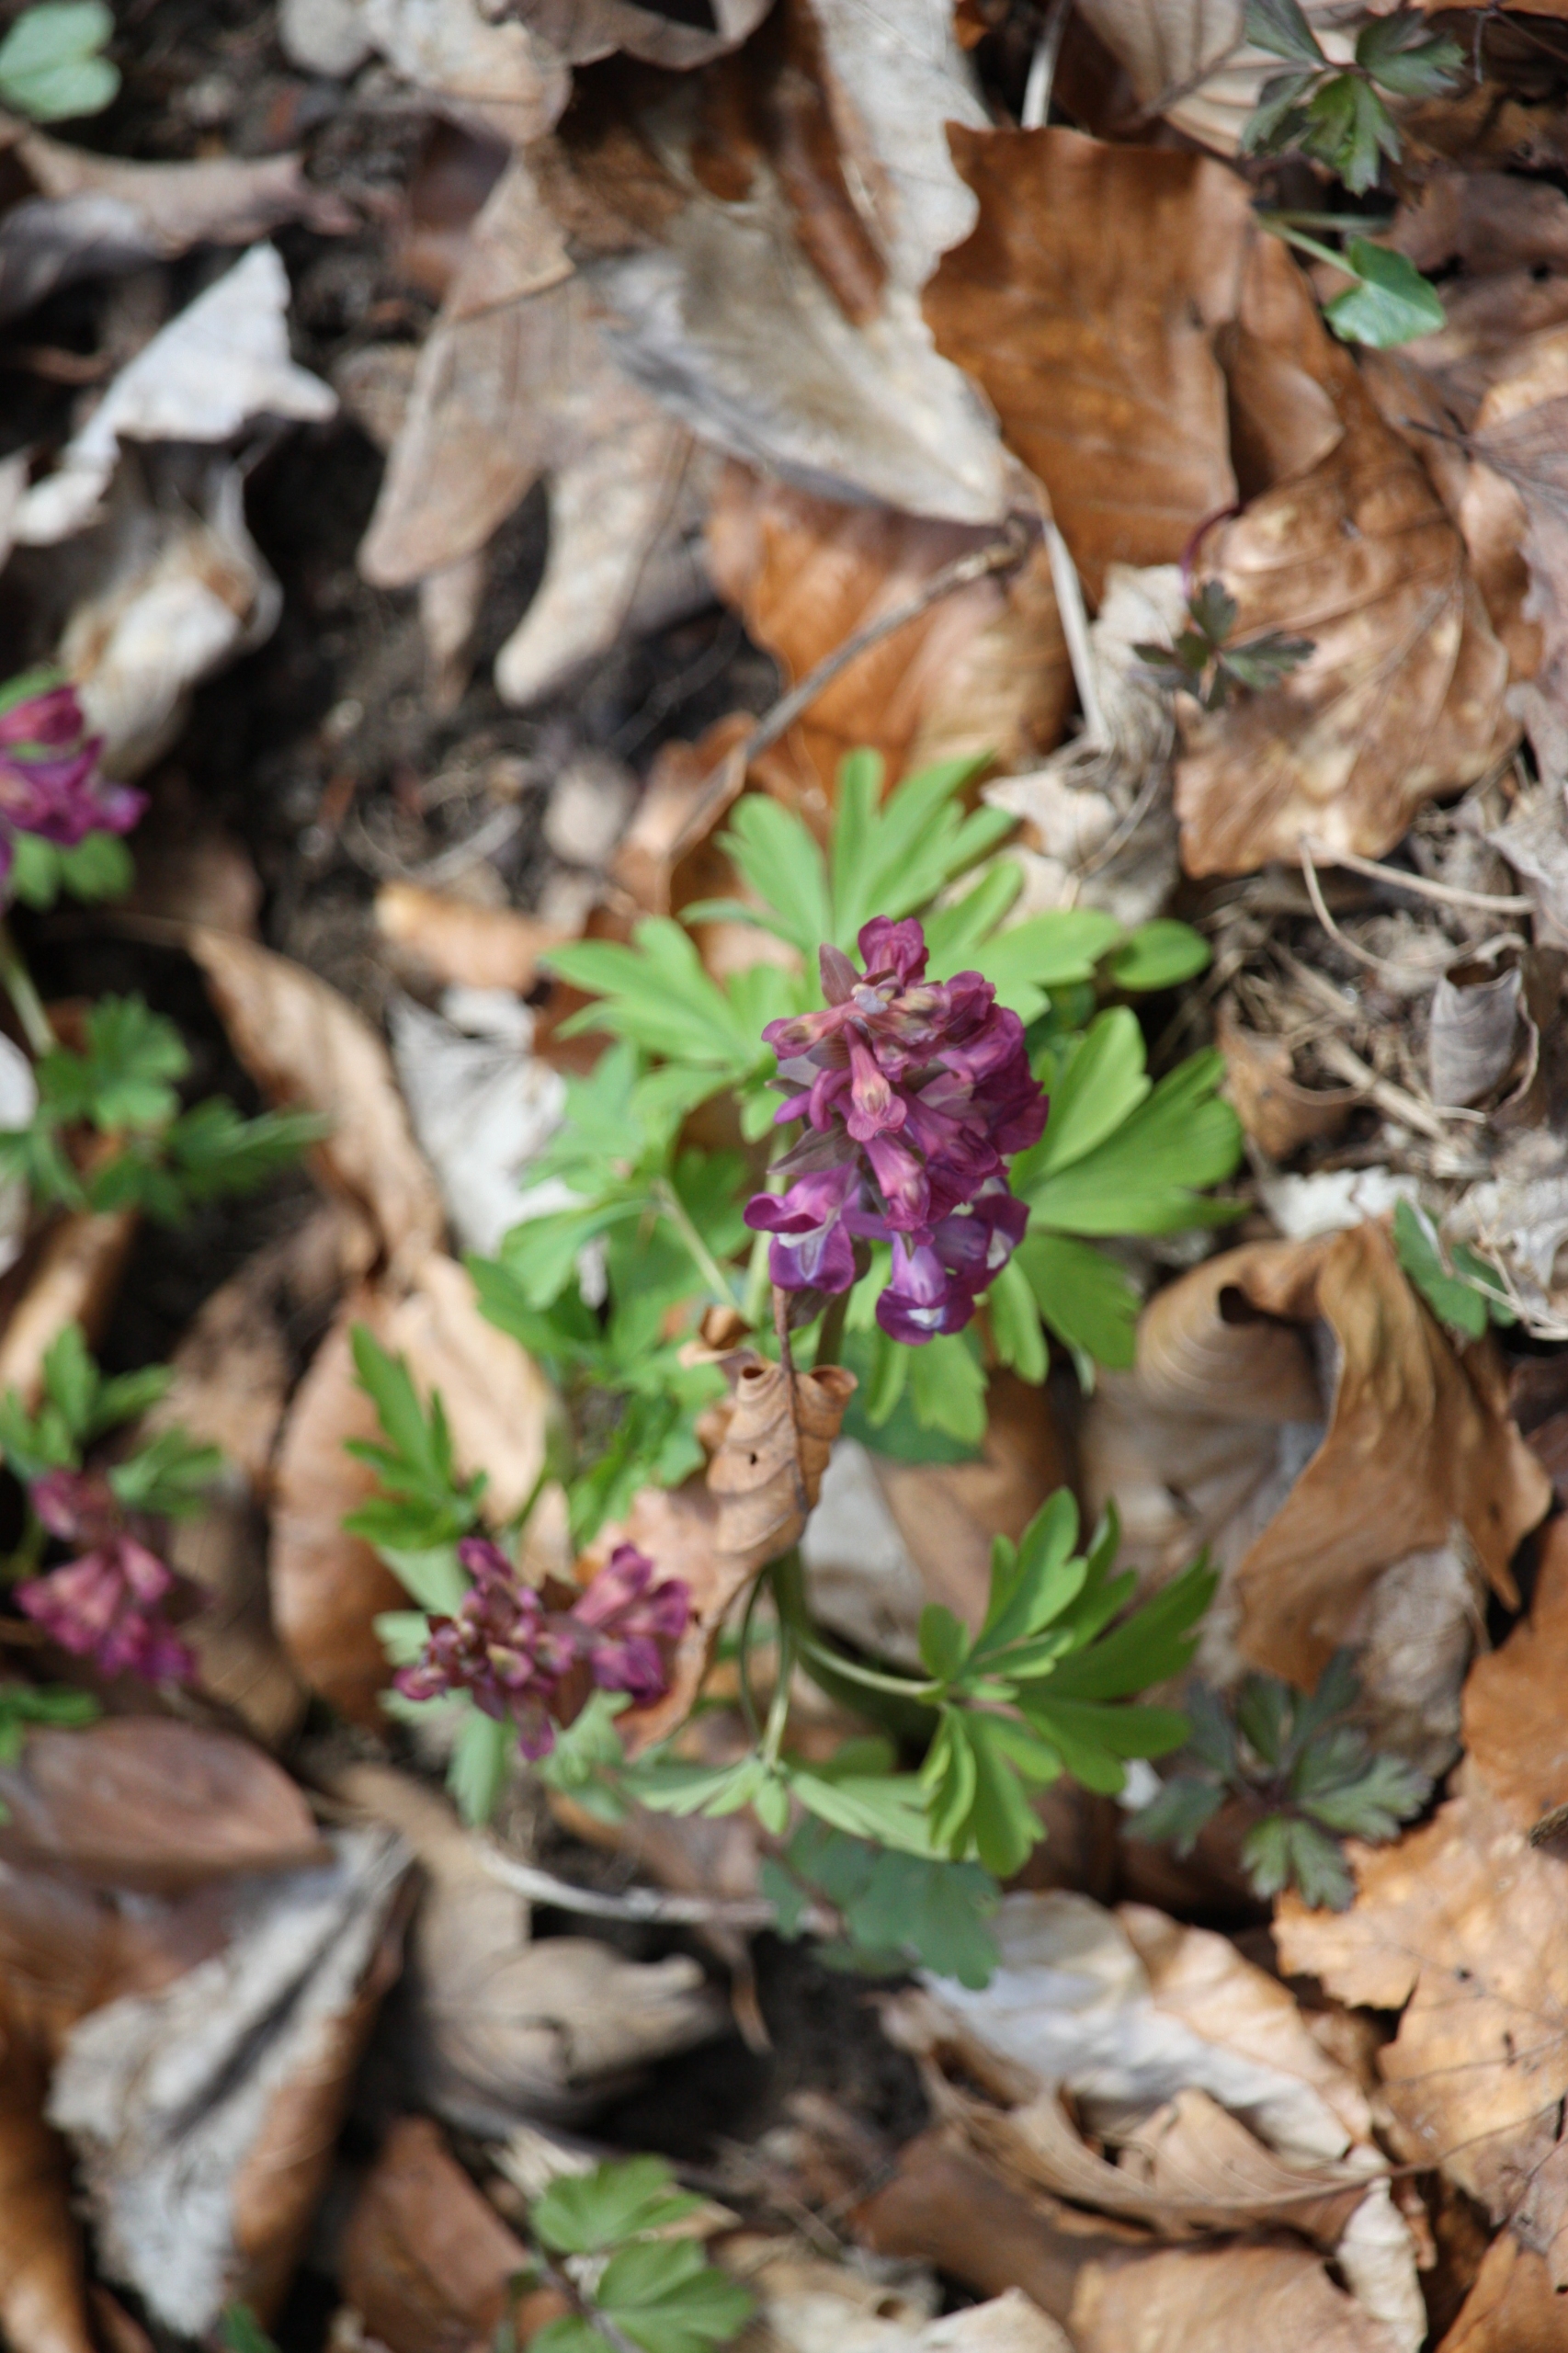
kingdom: Plantae
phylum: Tracheophyta
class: Magnoliopsida
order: Ranunculales
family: Papaveraceae
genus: Corydalis
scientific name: Corydalis cava
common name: Hulrodet lærkespore
